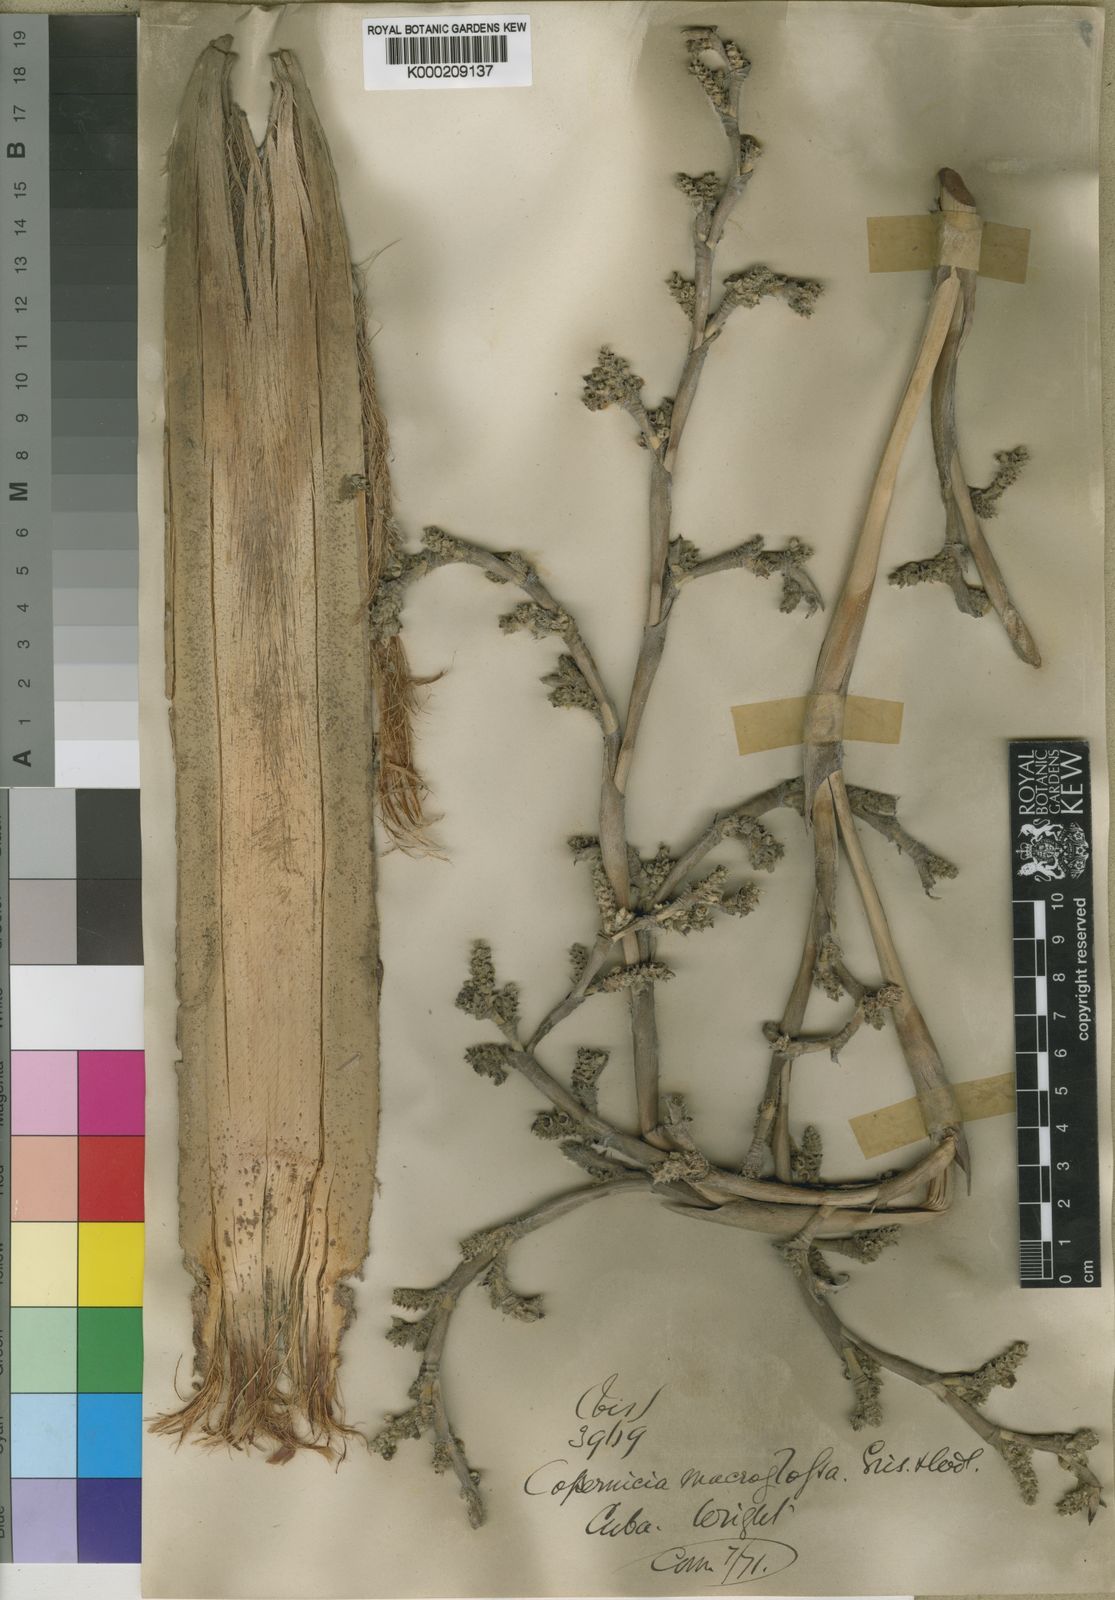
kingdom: Plantae
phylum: Tracheophyta
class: Liliopsida
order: Arecales
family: Arecaceae
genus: Copernicia
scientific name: Copernicia
